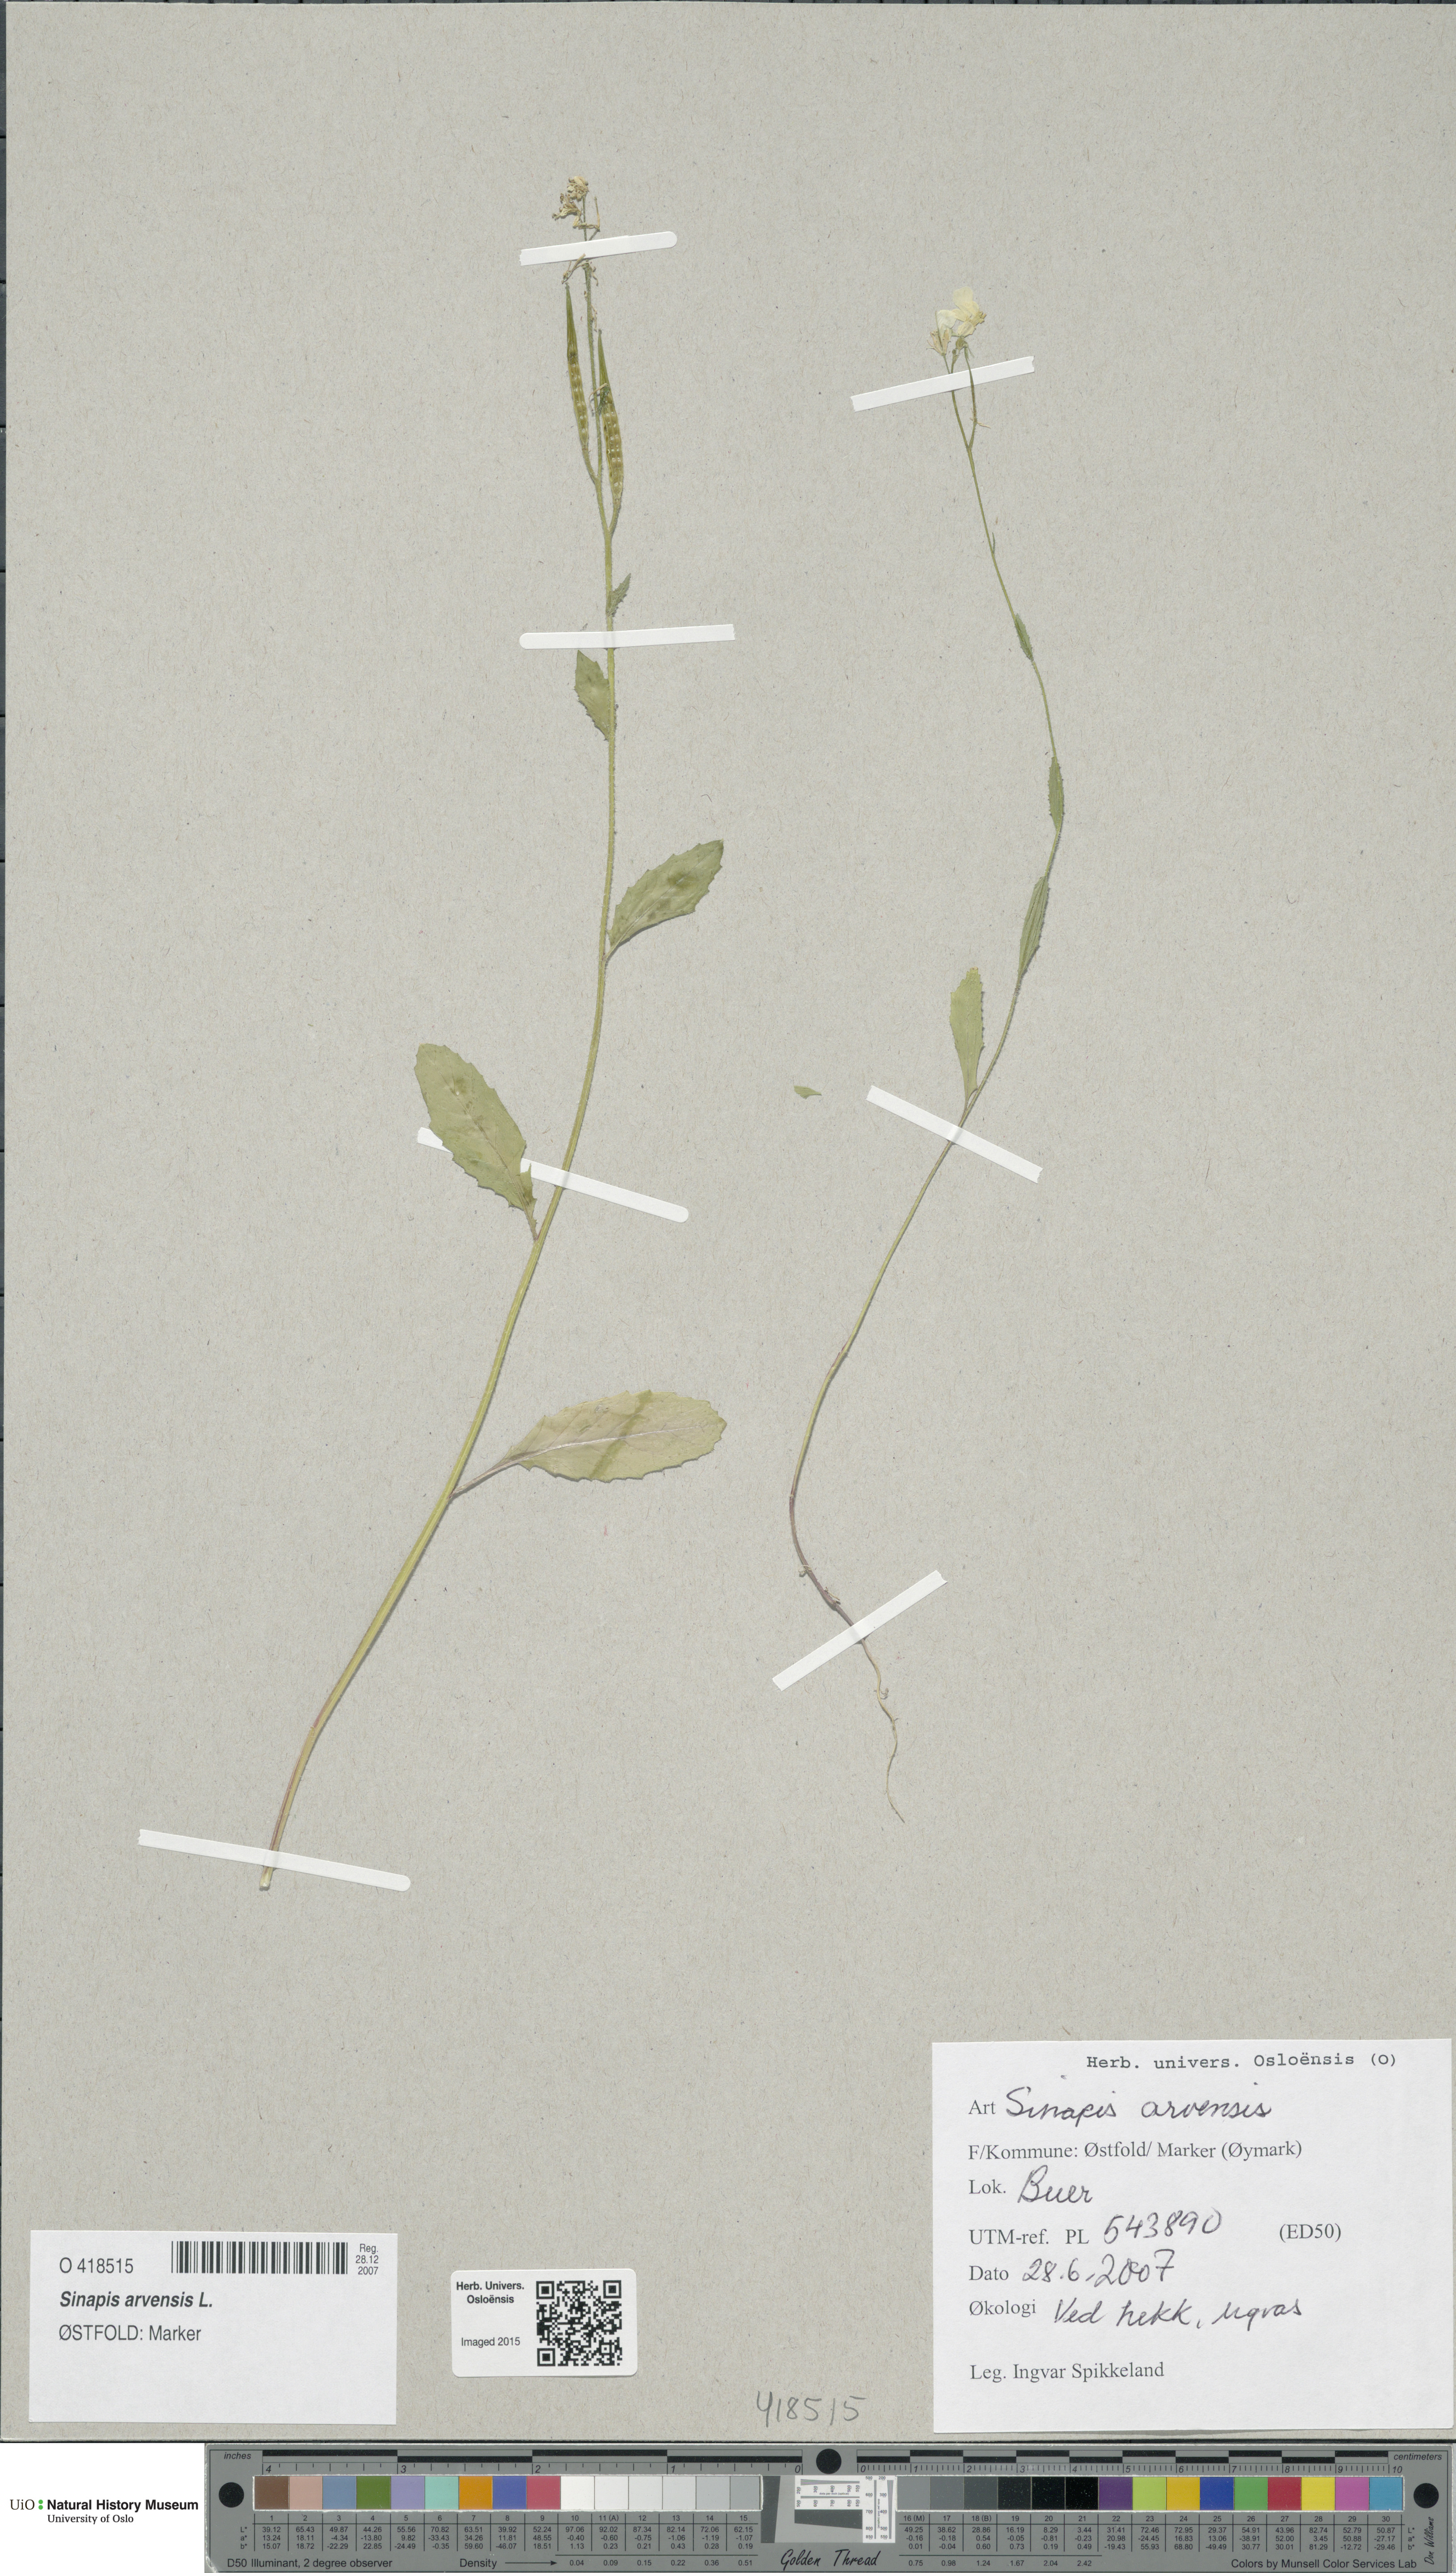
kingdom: Plantae
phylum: Tracheophyta
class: Magnoliopsida
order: Brassicales
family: Brassicaceae
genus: Sinapis
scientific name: Sinapis arvensis
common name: Charlock
